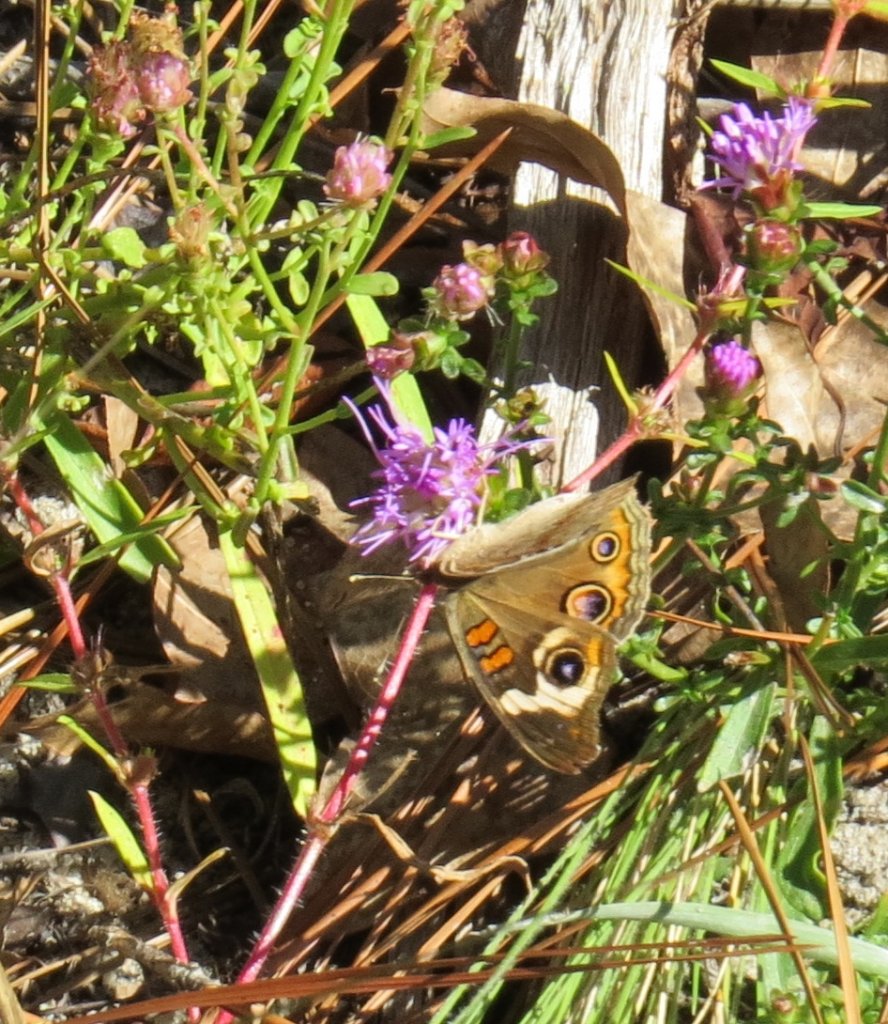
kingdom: Animalia
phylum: Arthropoda
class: Insecta
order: Lepidoptera
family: Nymphalidae
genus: Junonia
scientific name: Junonia coenia
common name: Common Buckeye
